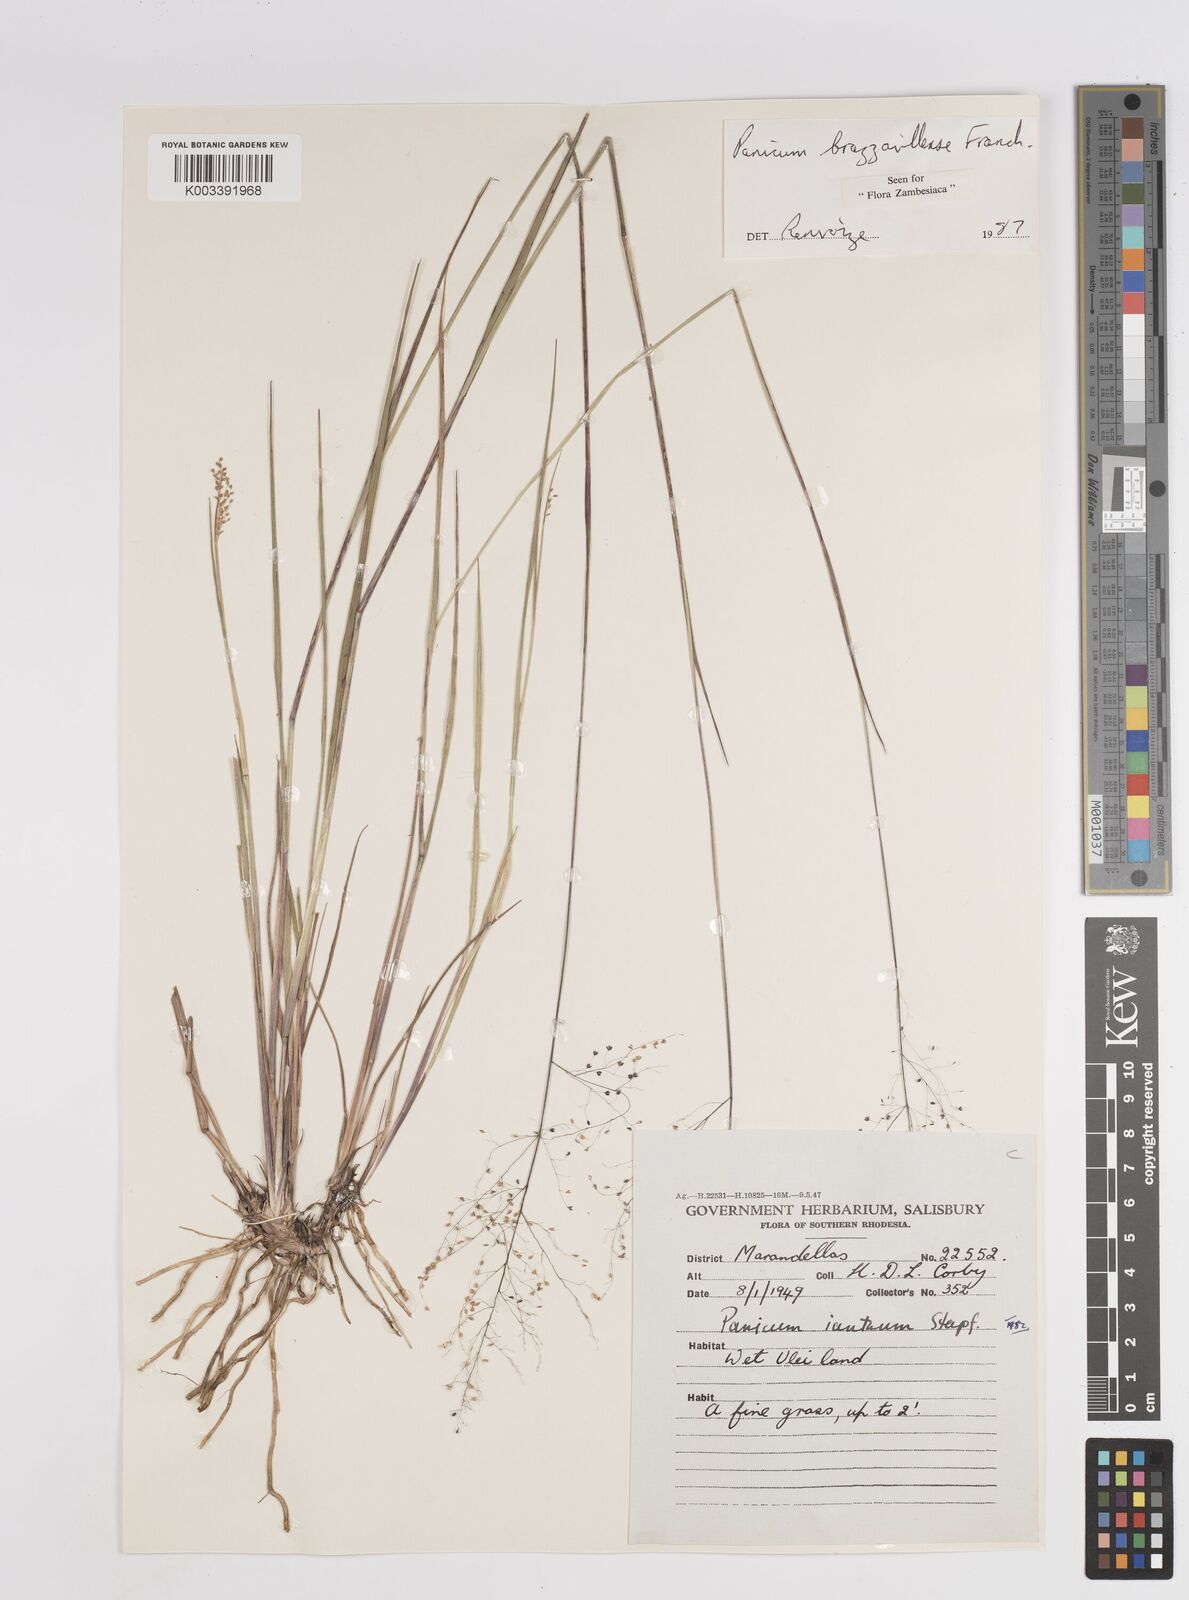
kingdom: Plantae
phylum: Tracheophyta
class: Liliopsida
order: Poales
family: Poaceae
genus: Trichanthecium
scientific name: Trichanthecium brazzavillense
